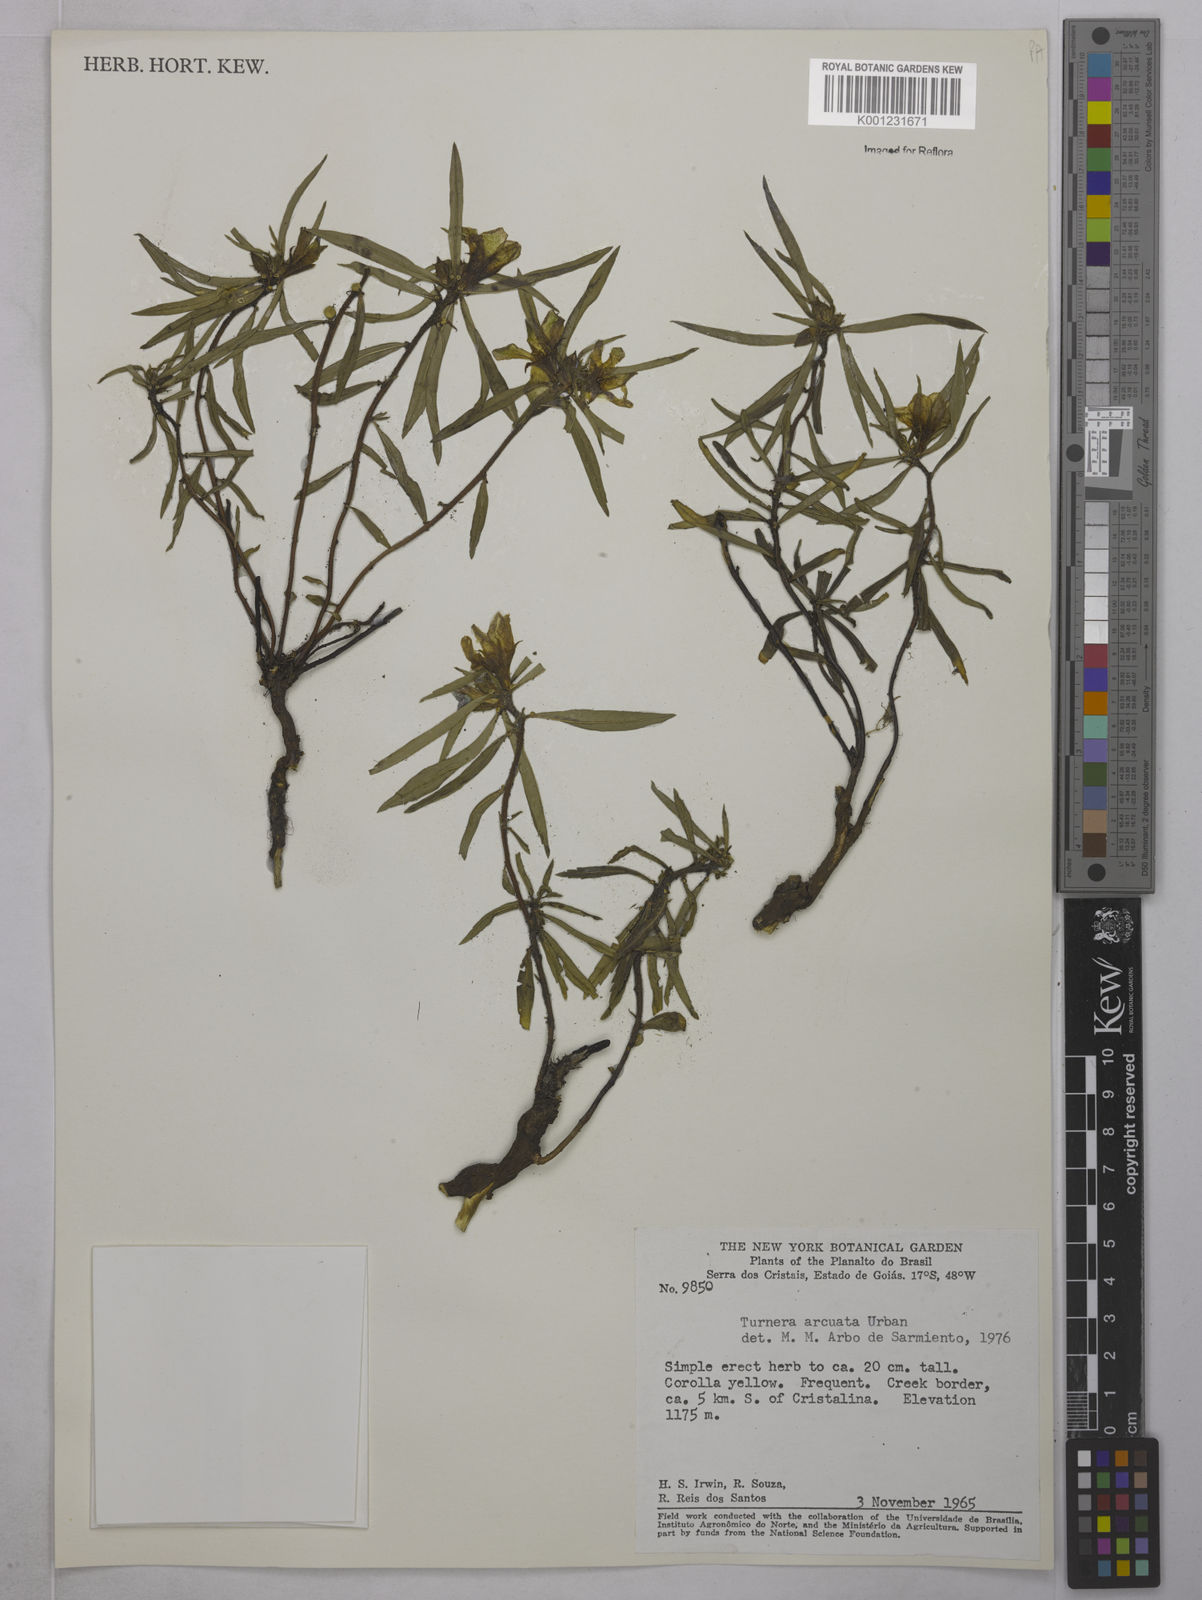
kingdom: Plantae
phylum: Tracheophyta
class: Magnoliopsida
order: Malpighiales
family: Turneraceae
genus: Turnera
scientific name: Turnera arcuata
